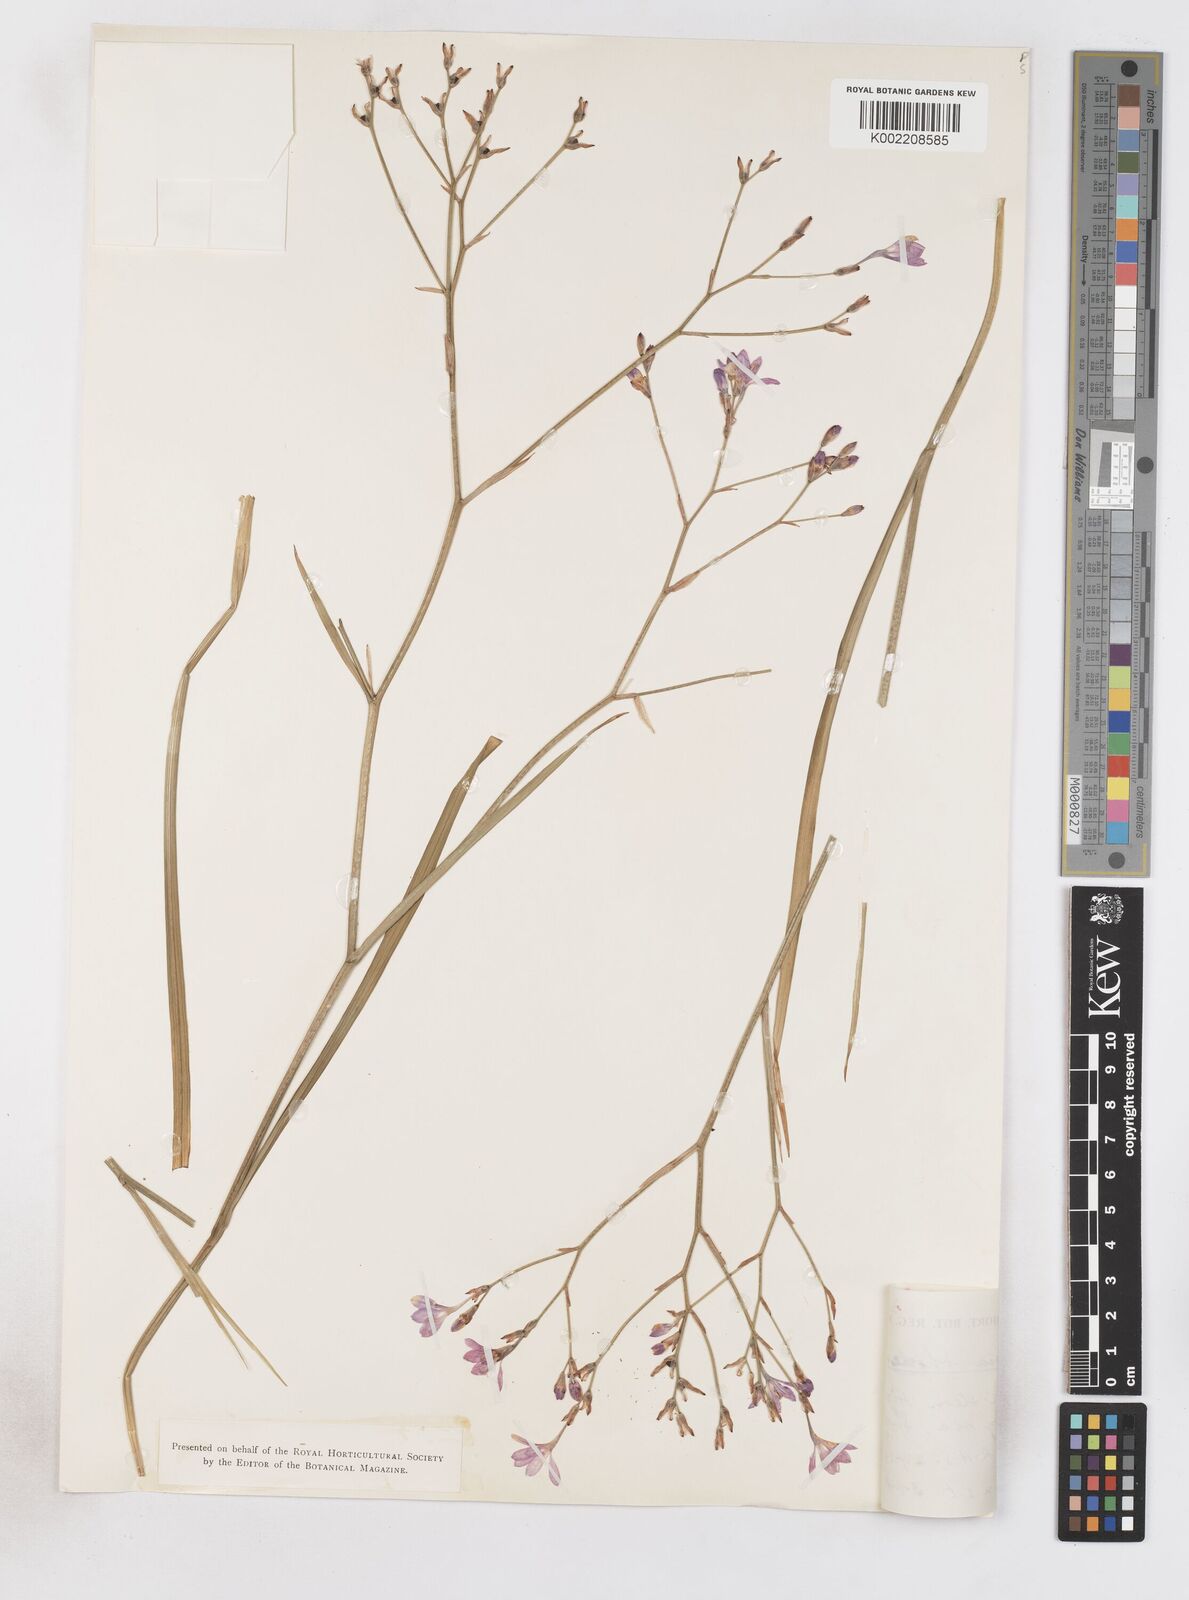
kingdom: Plantae
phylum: Tracheophyta
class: Liliopsida
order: Asparagales
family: Iridaceae
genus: Lapeirousia
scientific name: Lapeirousia
